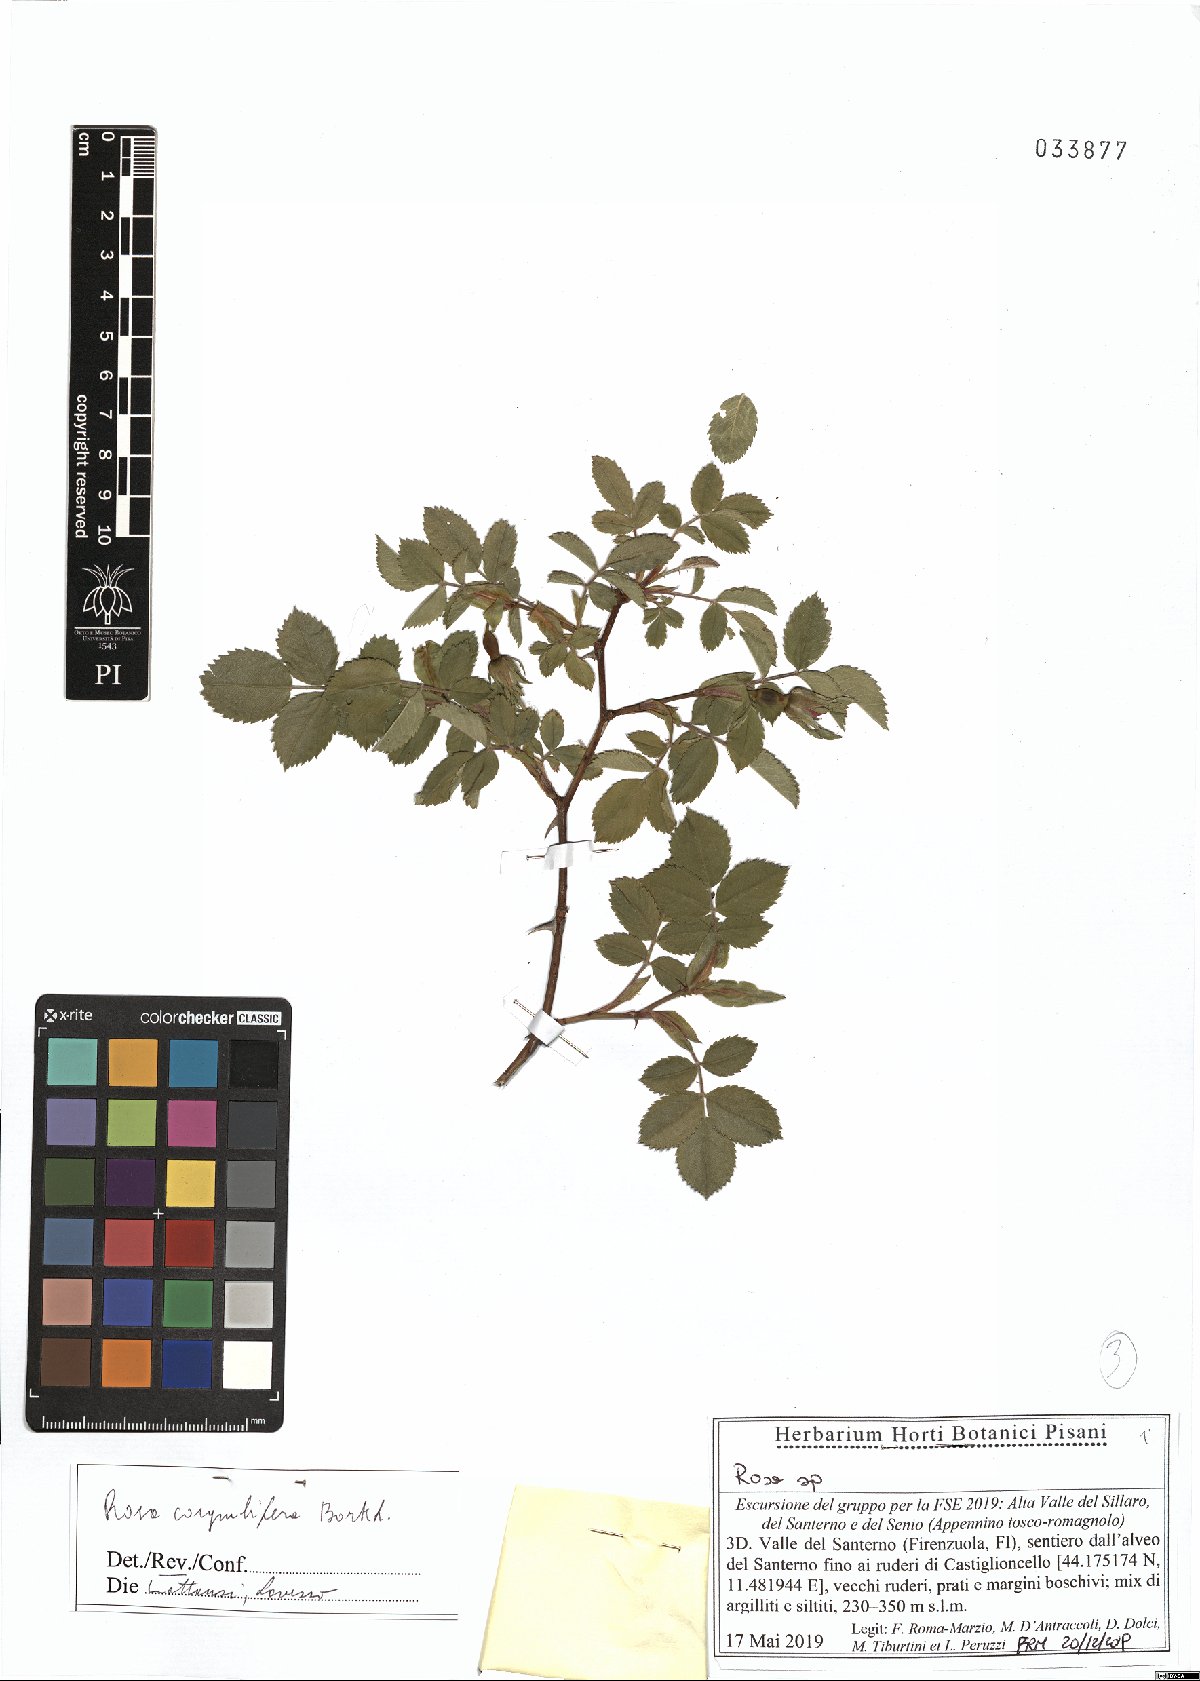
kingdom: Plantae
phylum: Tracheophyta
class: Magnoliopsida
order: Rosales
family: Rosaceae
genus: Rosa
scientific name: Rosa corymbifera
